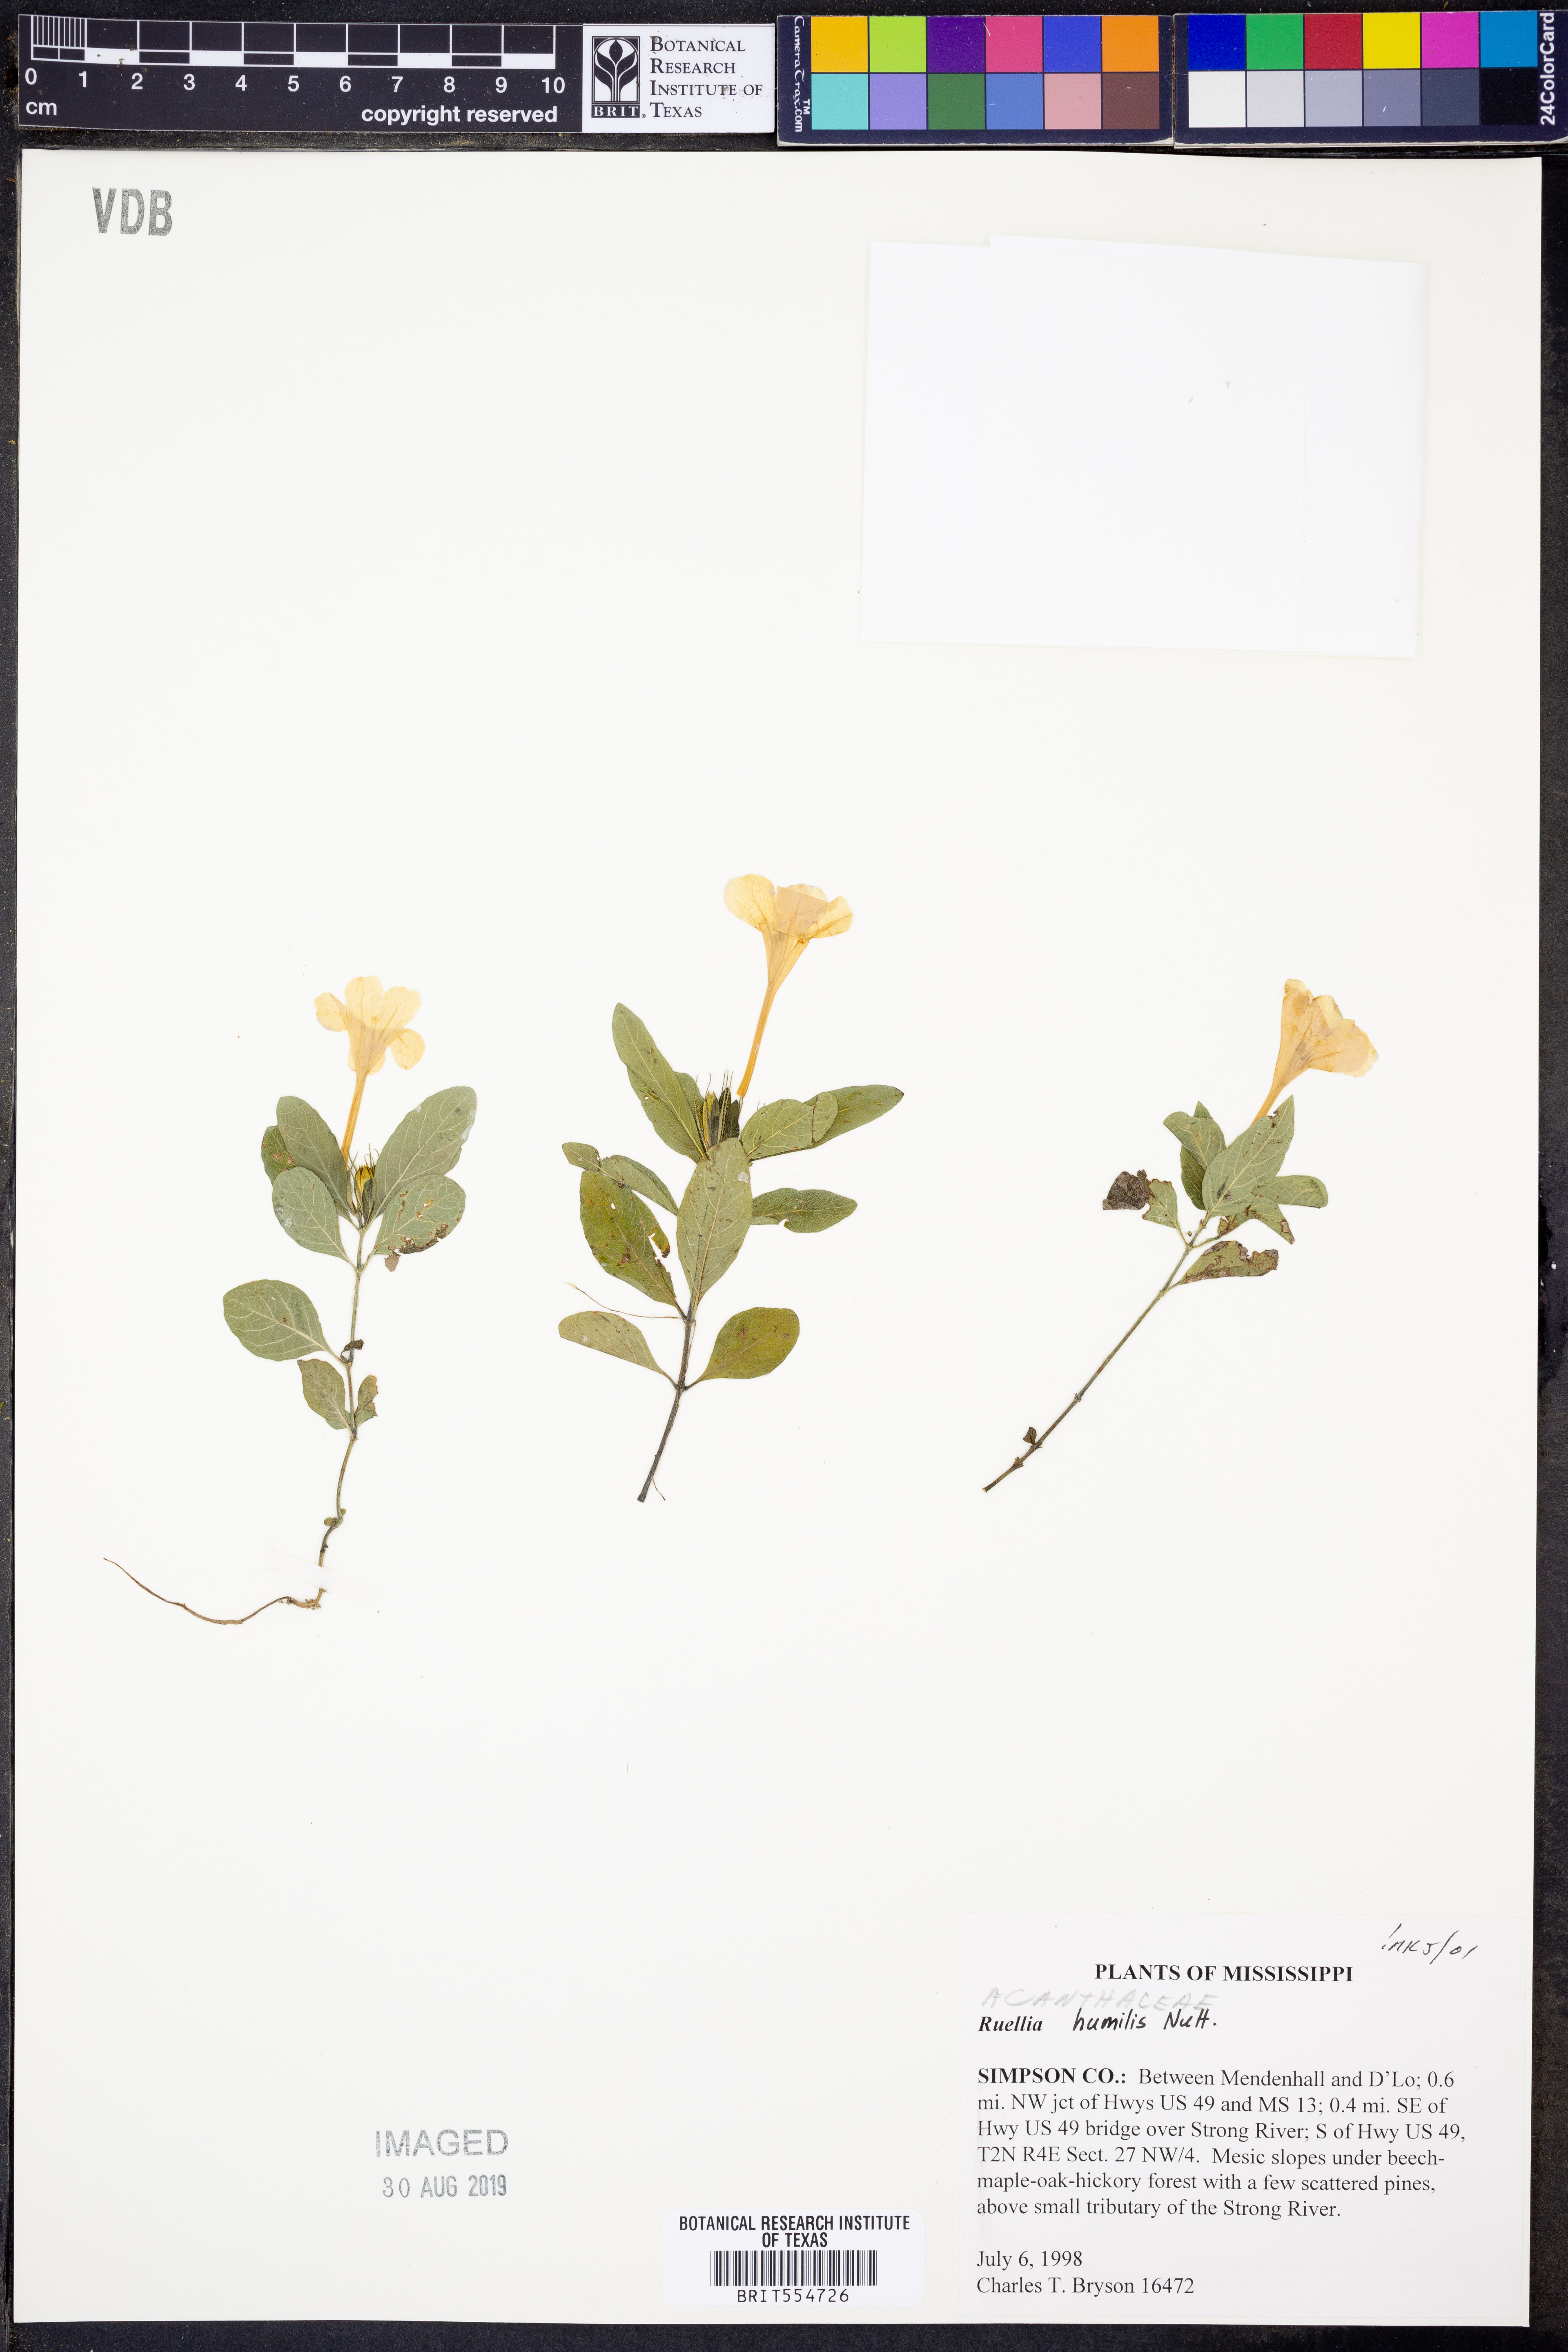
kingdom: Plantae
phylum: Tracheophyta
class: Magnoliopsida
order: Lamiales
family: Acanthaceae
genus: Ruellia
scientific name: Ruellia humilis
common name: Fringe-leaf ruellia
